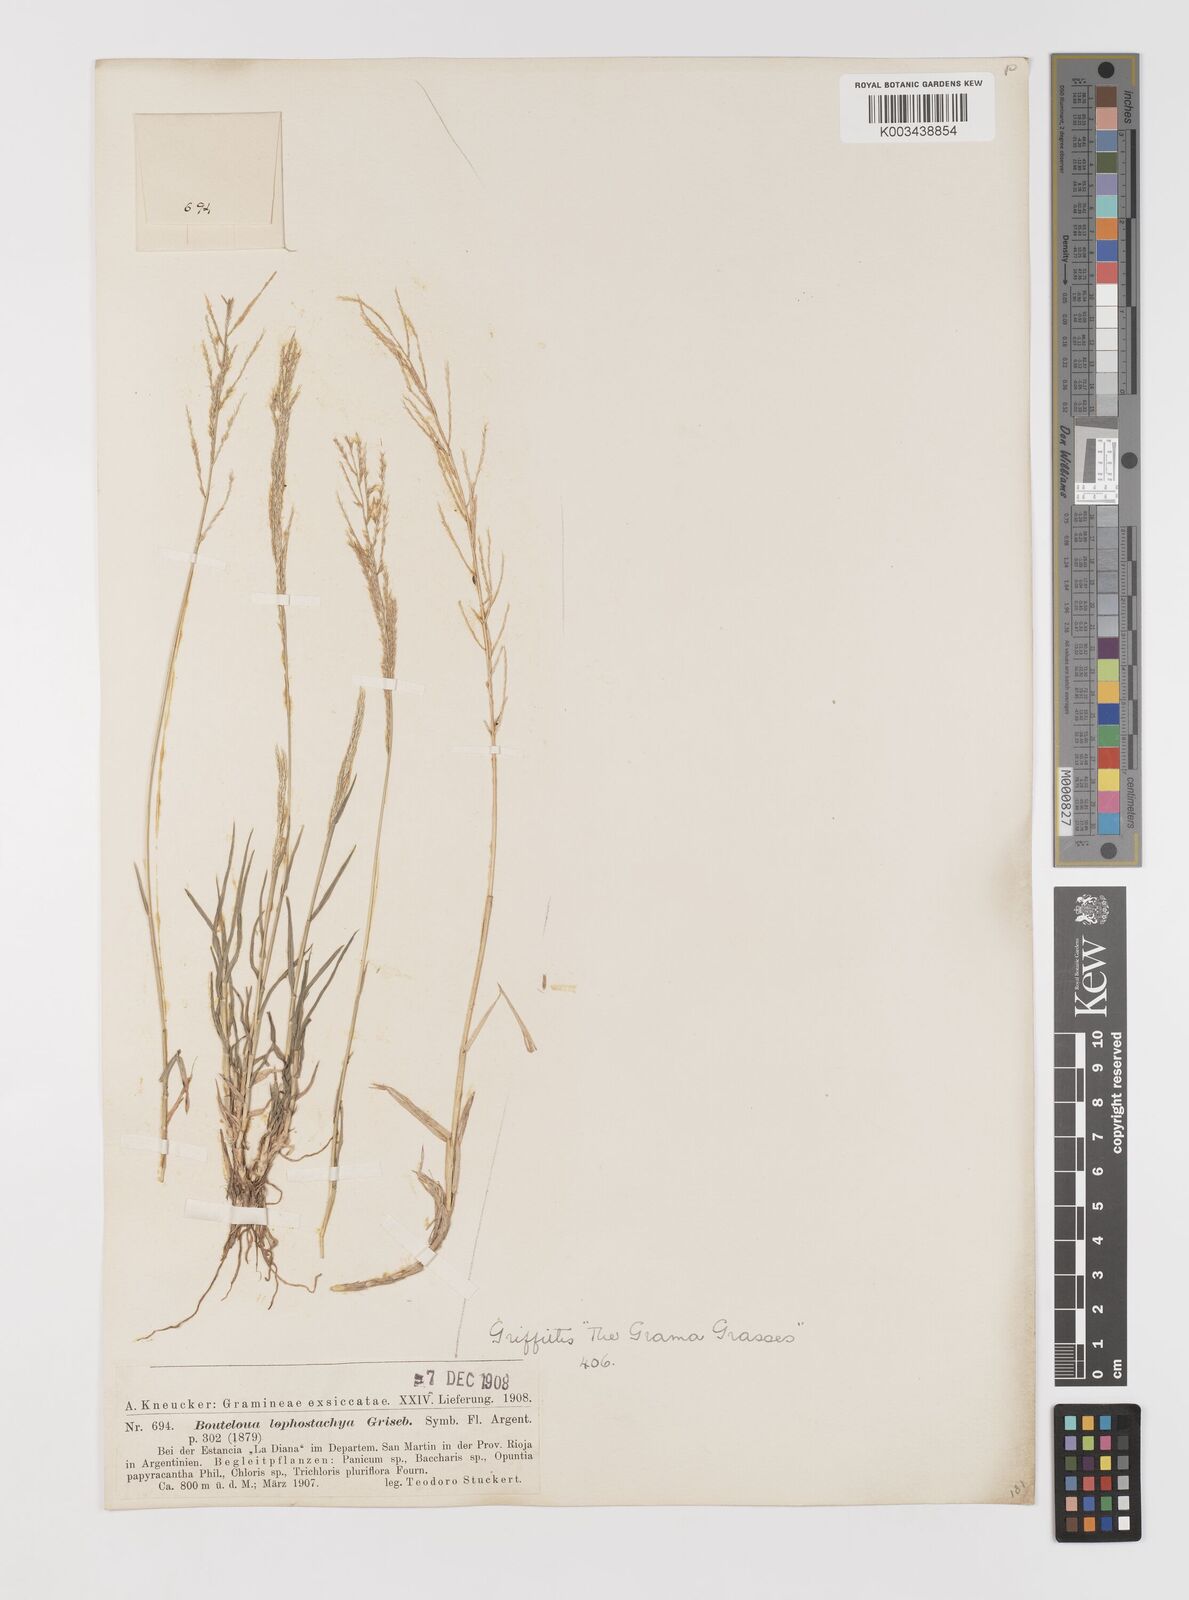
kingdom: Plantae
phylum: Tracheophyta
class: Liliopsida
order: Poales
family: Poaceae
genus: Neobouteloua
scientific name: Neobouteloua lophostachya
